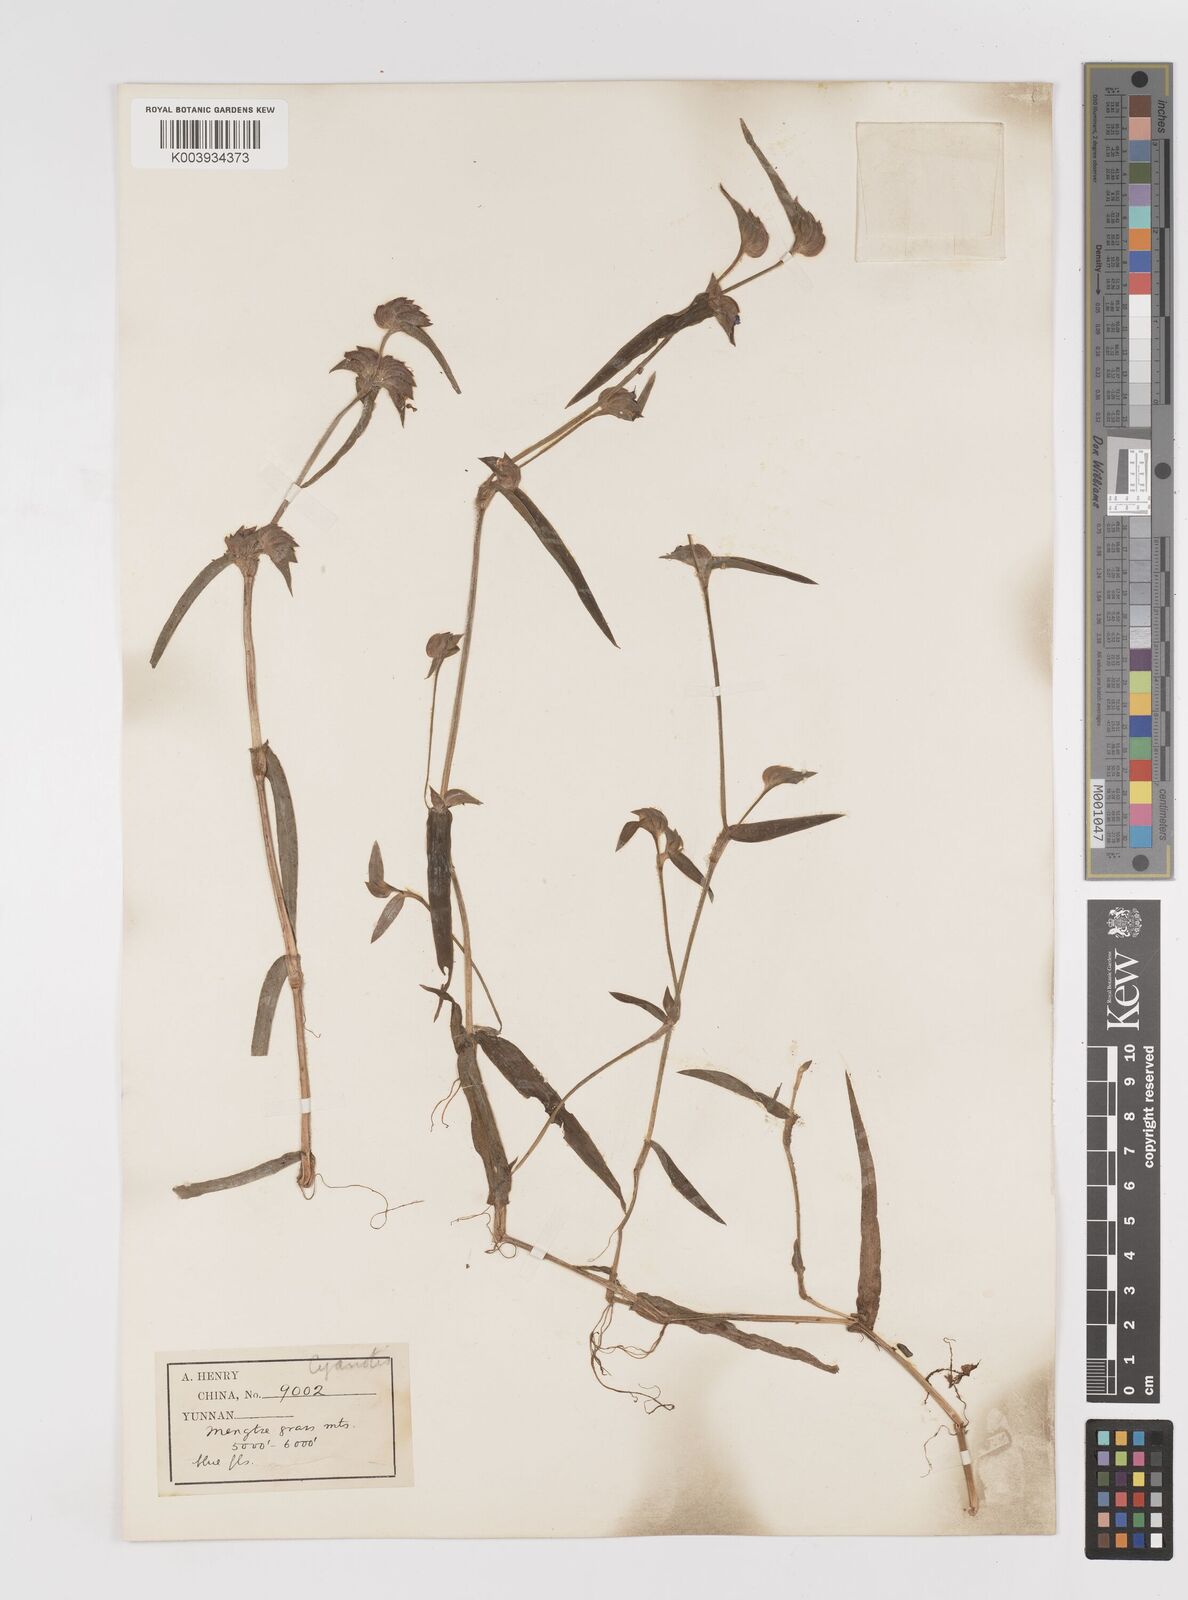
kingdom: Plantae
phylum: Tracheophyta
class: Liliopsida
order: Commelinales
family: Commelinaceae
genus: Cyanotis
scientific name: Cyanotis
